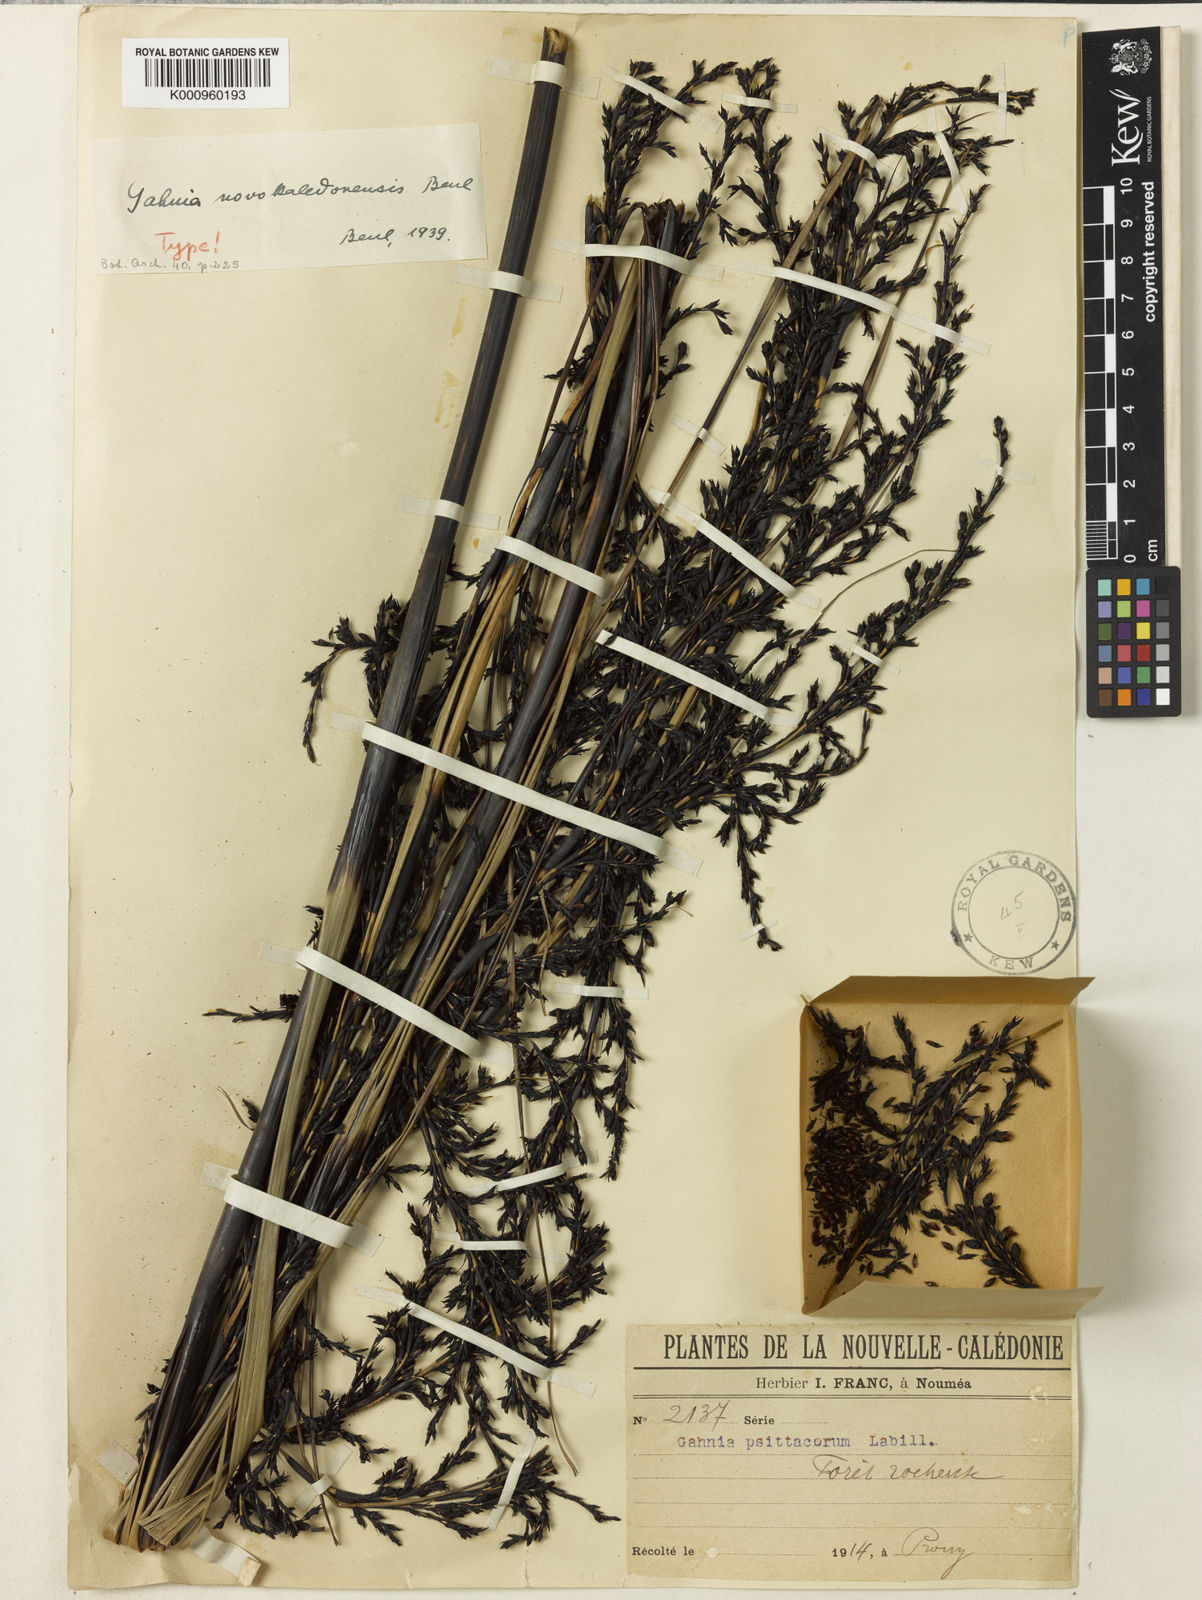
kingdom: Plantae
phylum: Tracheophyta
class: Liliopsida
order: Poales
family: Cyperaceae
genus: Gahnia
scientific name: Gahnia novocaledonensis
